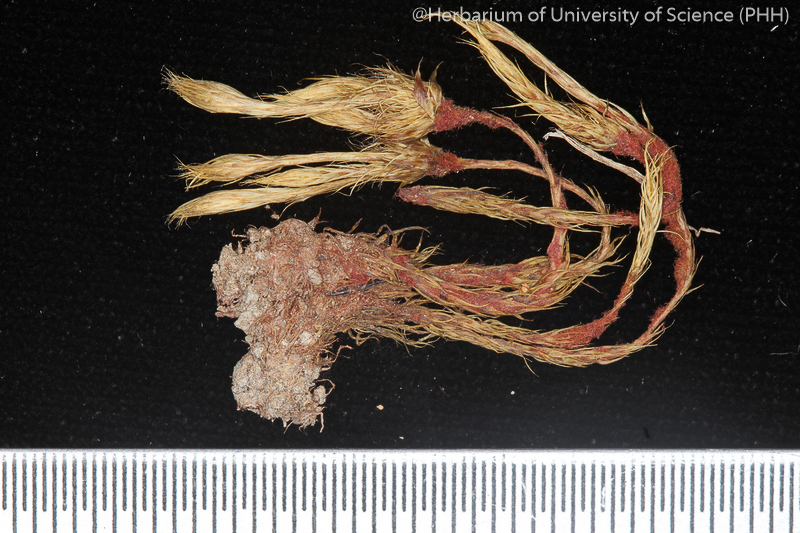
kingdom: Plantae
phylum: Bryophyta
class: Bryopsida
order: Dicranales
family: Leucobryaceae
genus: Campylopus
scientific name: Campylopus richardii
